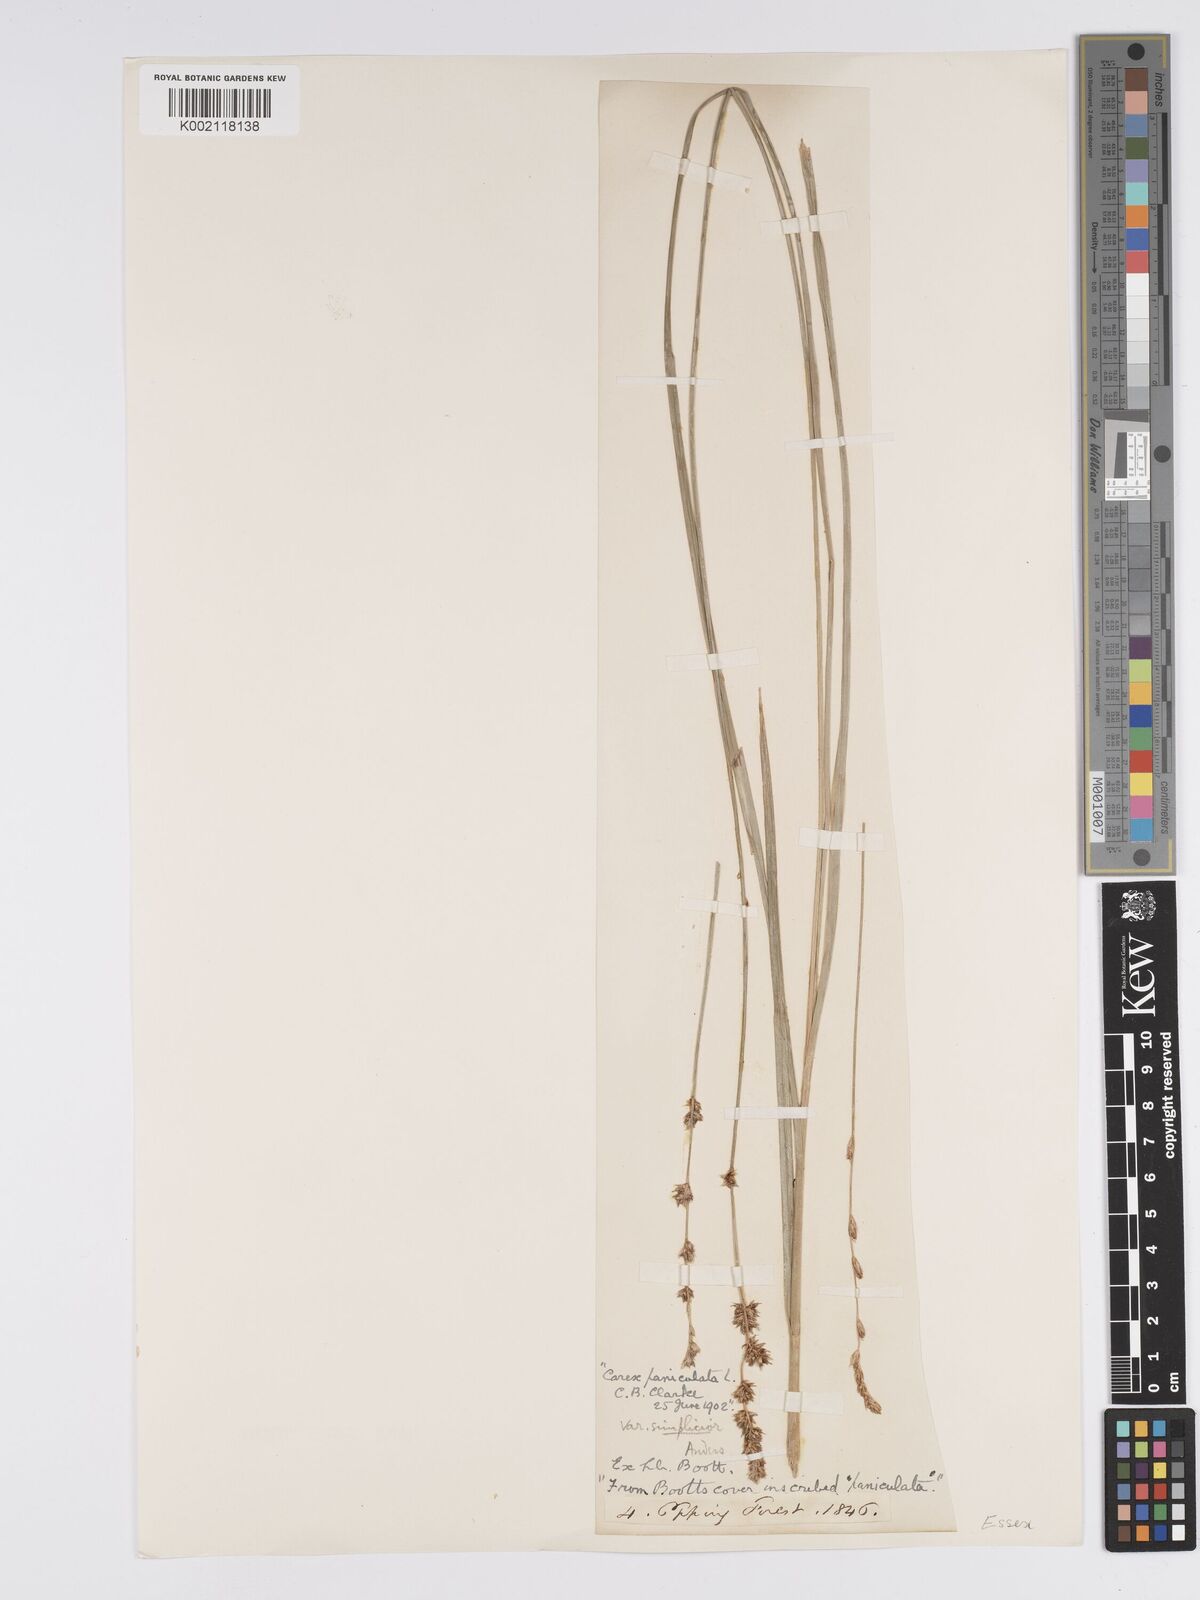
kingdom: Plantae
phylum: Tracheophyta
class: Liliopsida
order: Poales
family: Cyperaceae
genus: Carex
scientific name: Carex paniculata
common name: Greater tussock-sedge
